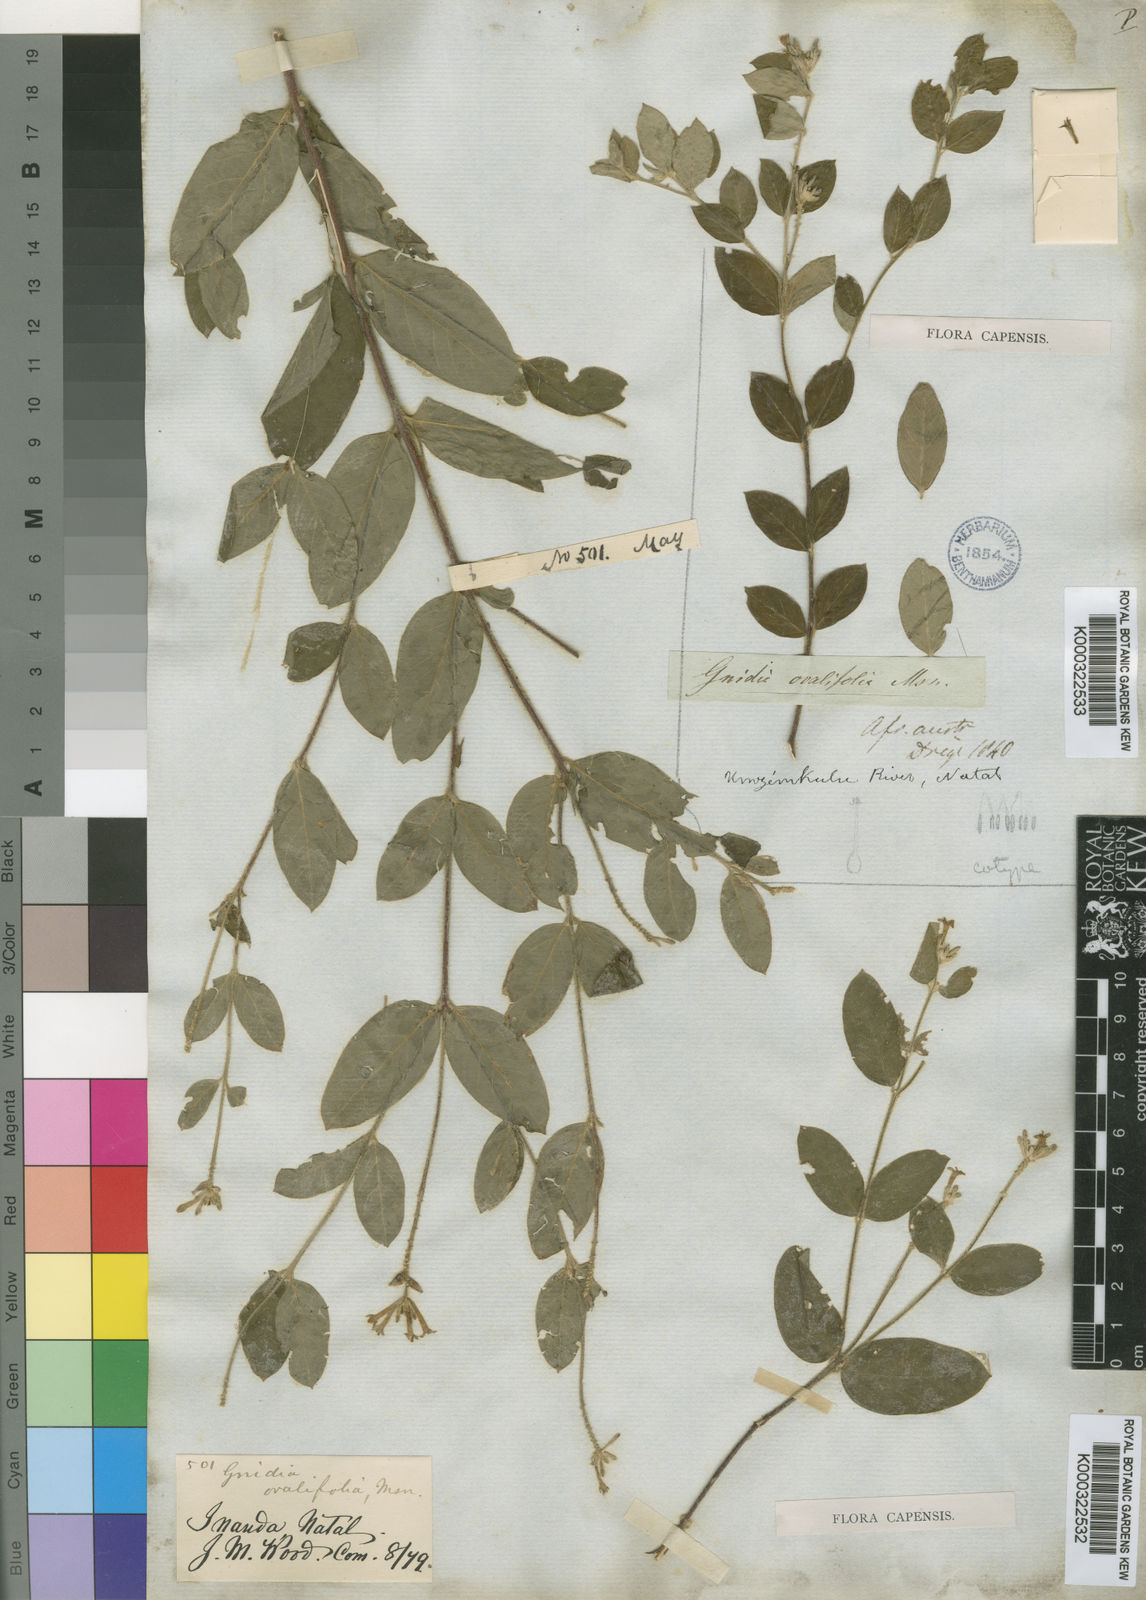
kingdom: Plantae
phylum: Tracheophyta
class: Magnoliopsida
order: Malvales
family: Thymelaeaceae
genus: Gnidia
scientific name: Gnidia
